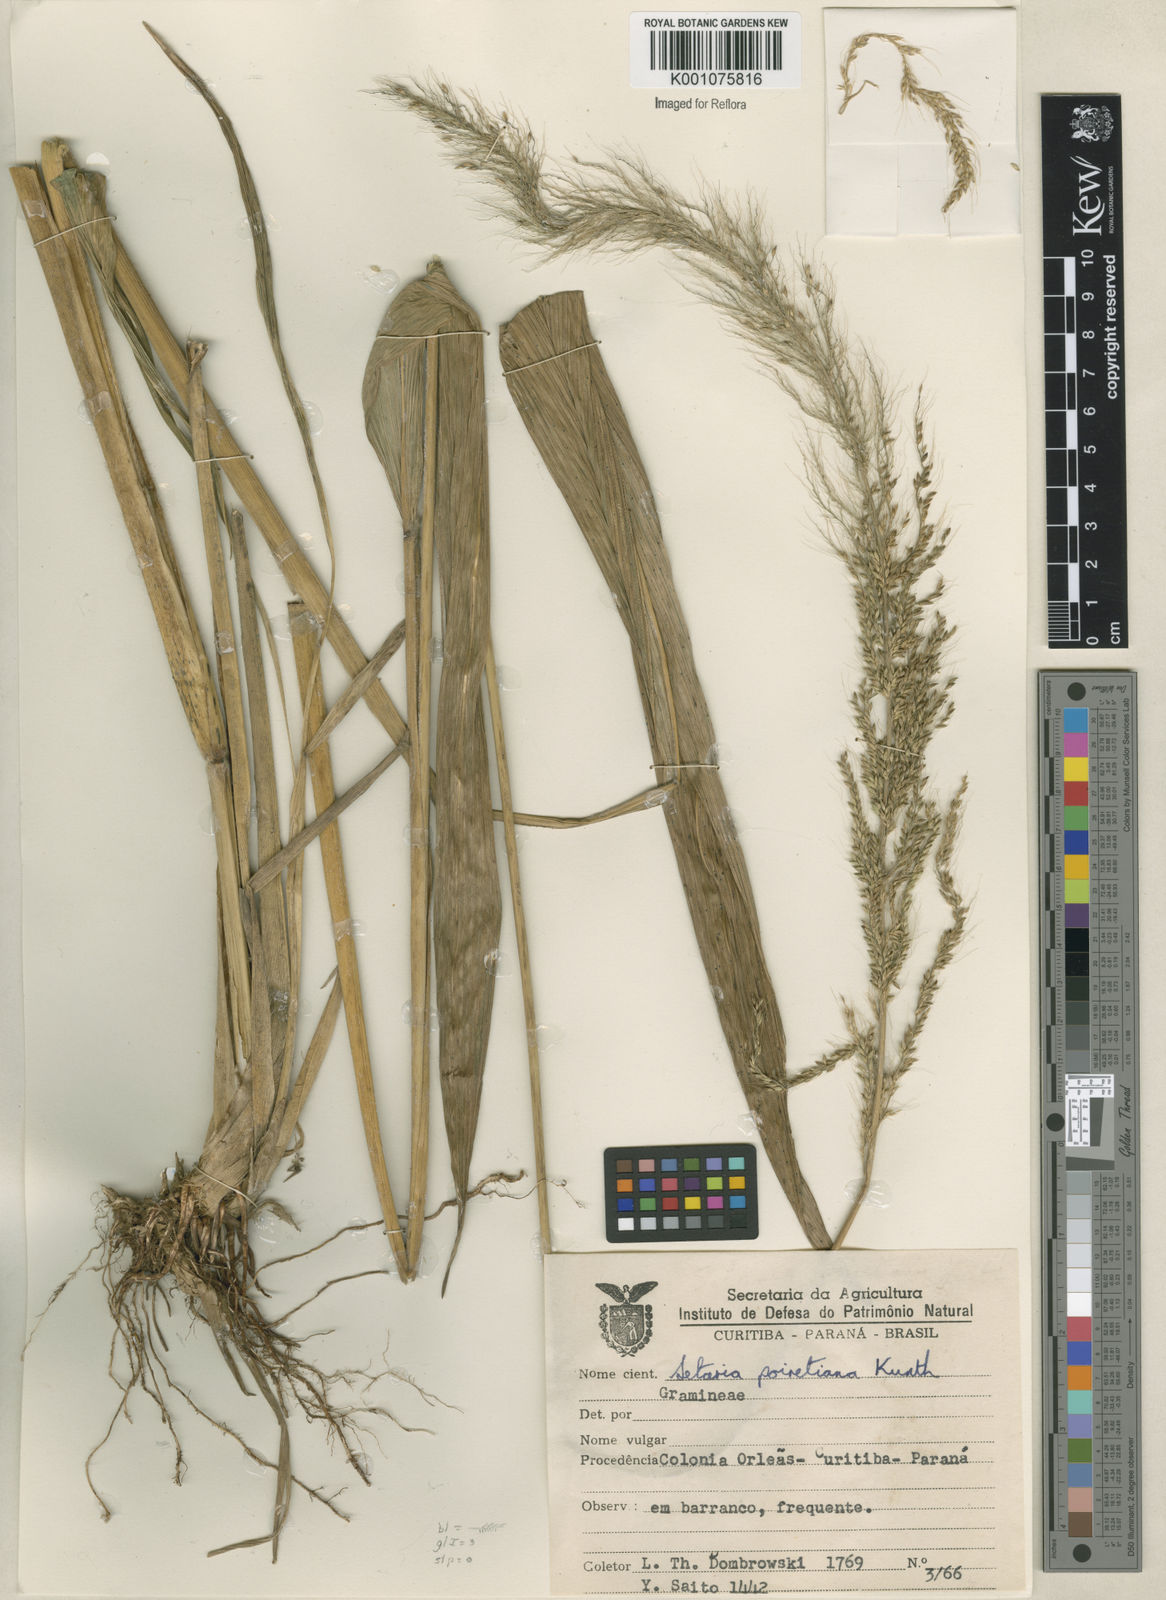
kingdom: Plantae
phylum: Tracheophyta
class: Liliopsida
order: Poales
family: Poaceae
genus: Setaria
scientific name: Setaria megaphylla
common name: Bigleaf bristlegrass
